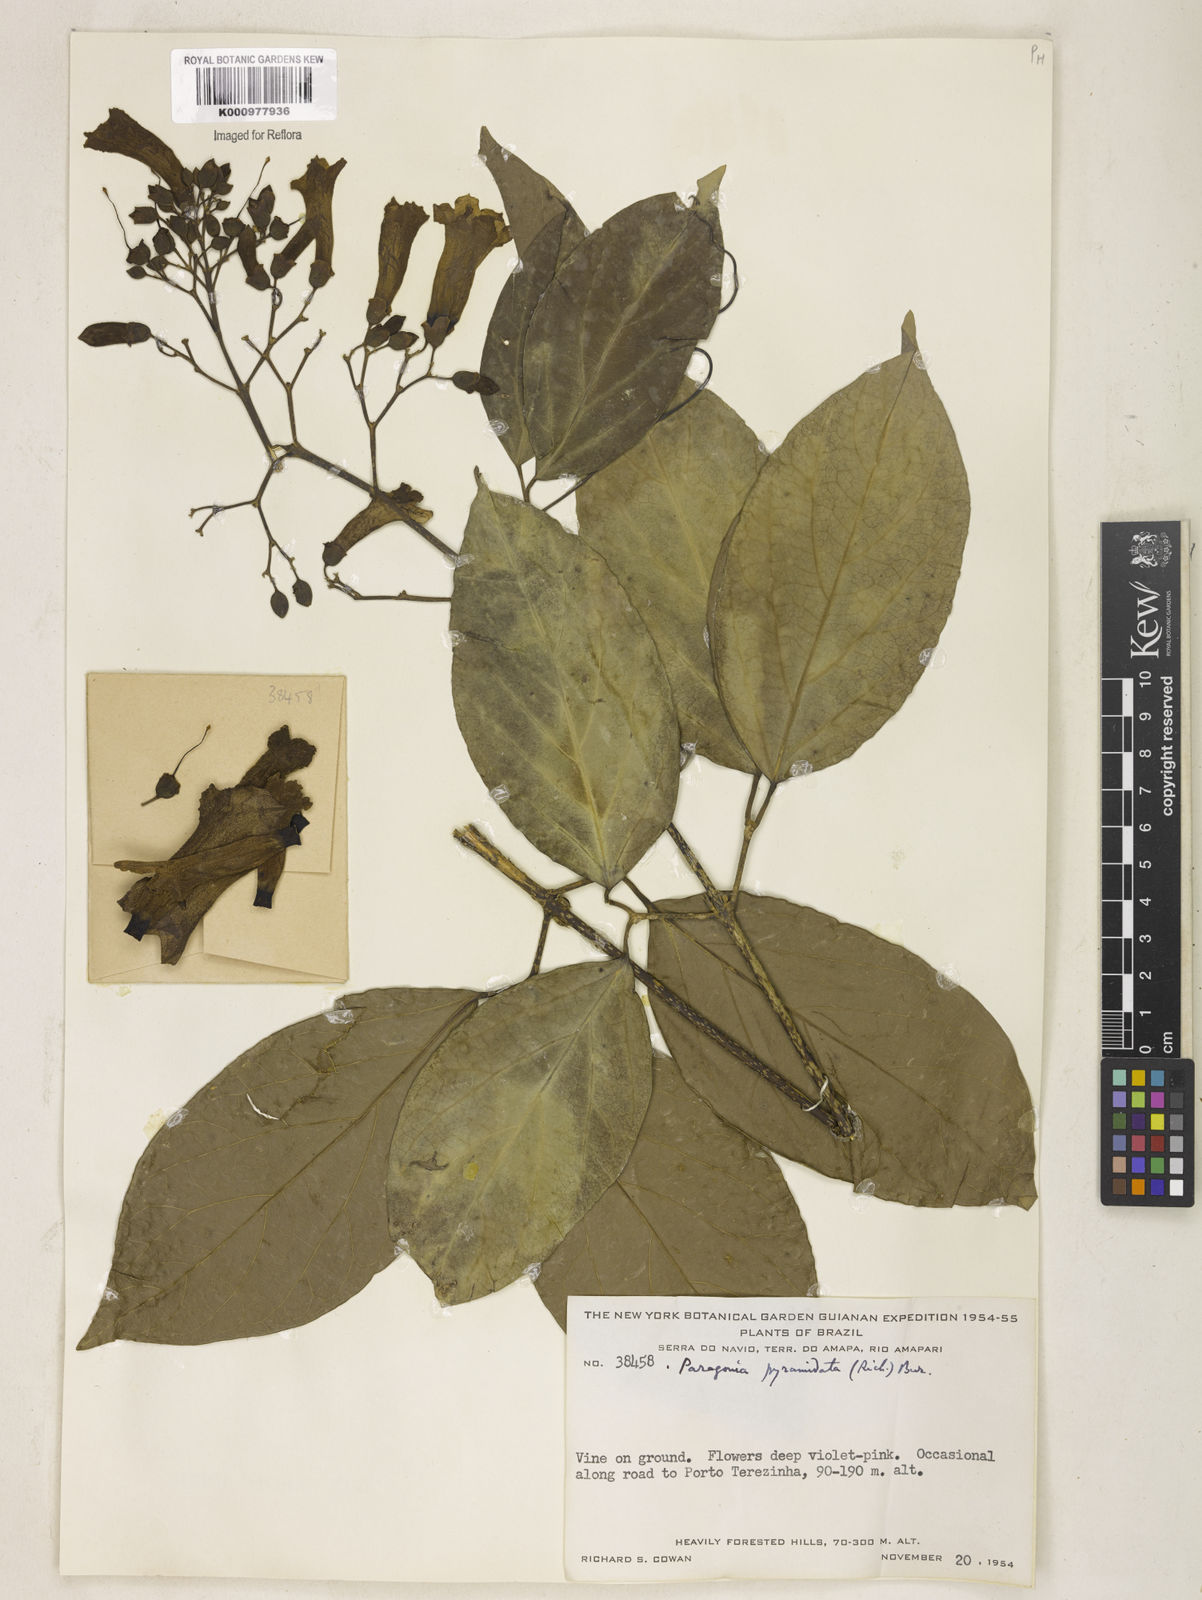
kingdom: Plantae
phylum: Tracheophyta
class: Magnoliopsida
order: Lamiales
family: Bignoniaceae
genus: Tanaecium
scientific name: Tanaecium pyramidatum
